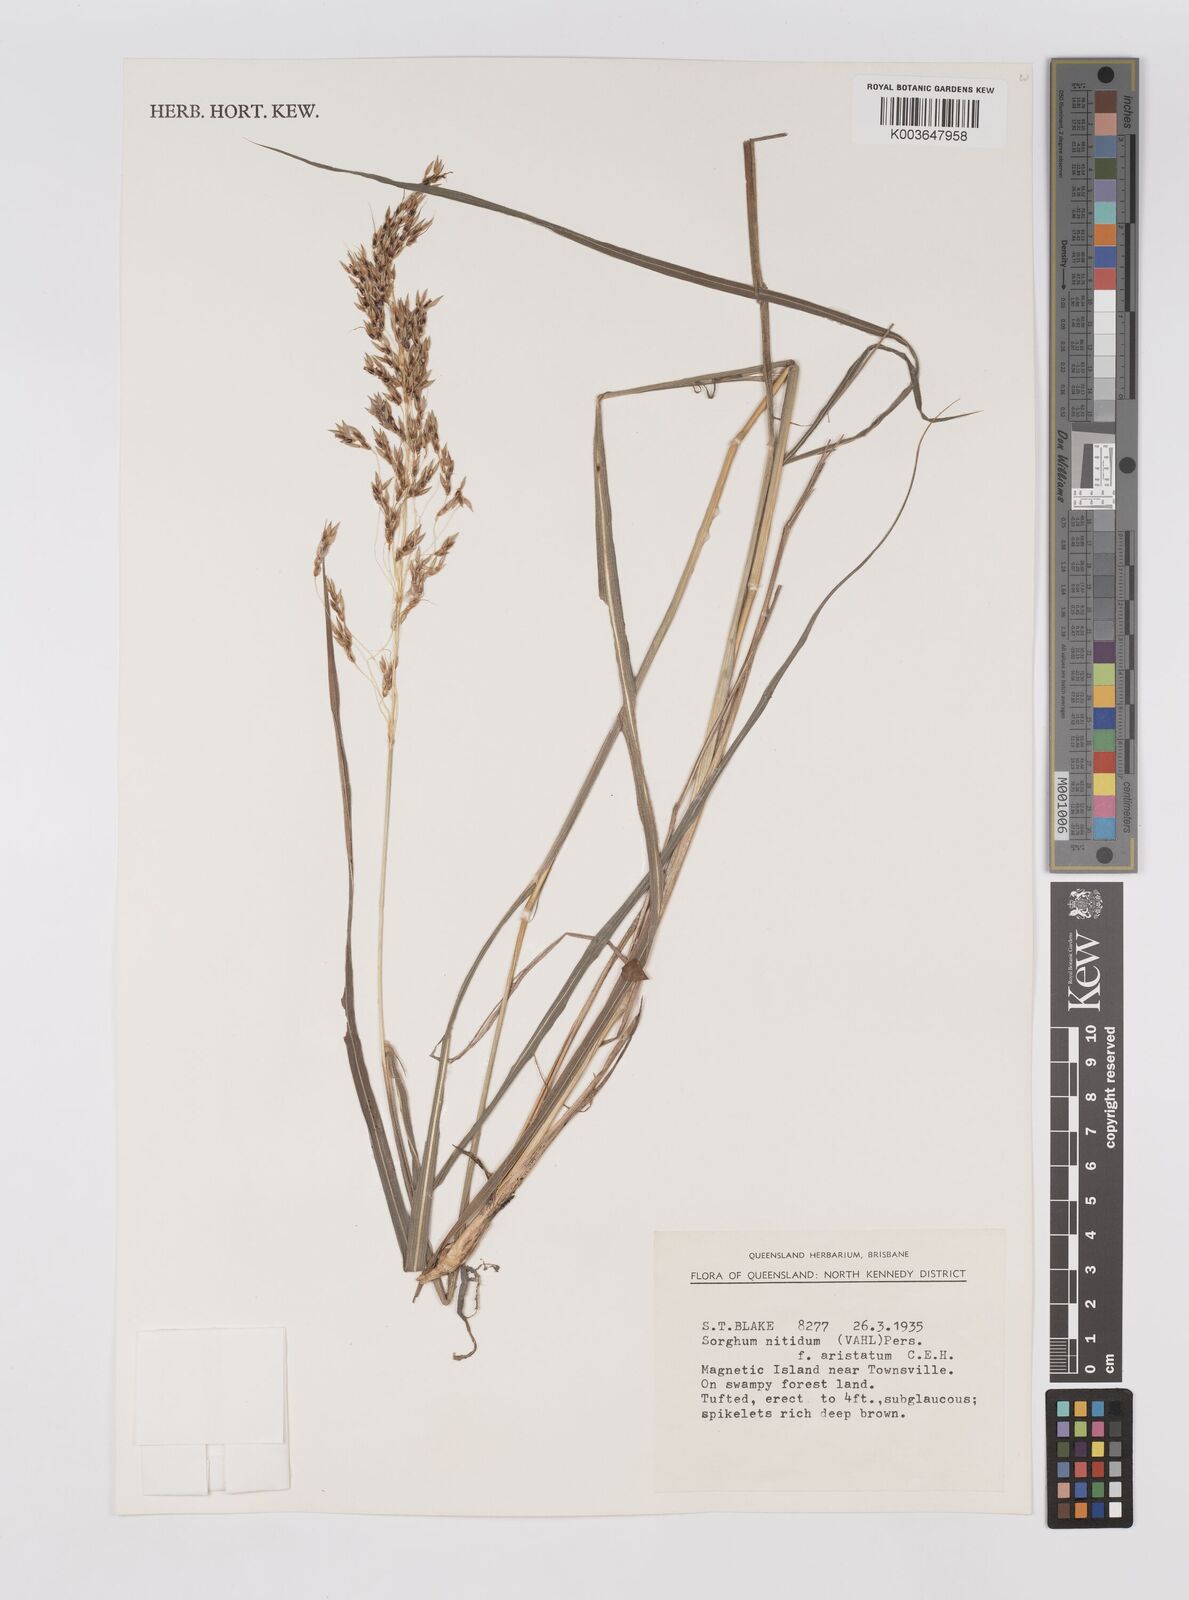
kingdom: Plantae
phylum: Tracheophyta
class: Liliopsida
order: Poales
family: Poaceae
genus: Sorghum
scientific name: Sorghum nitidum
